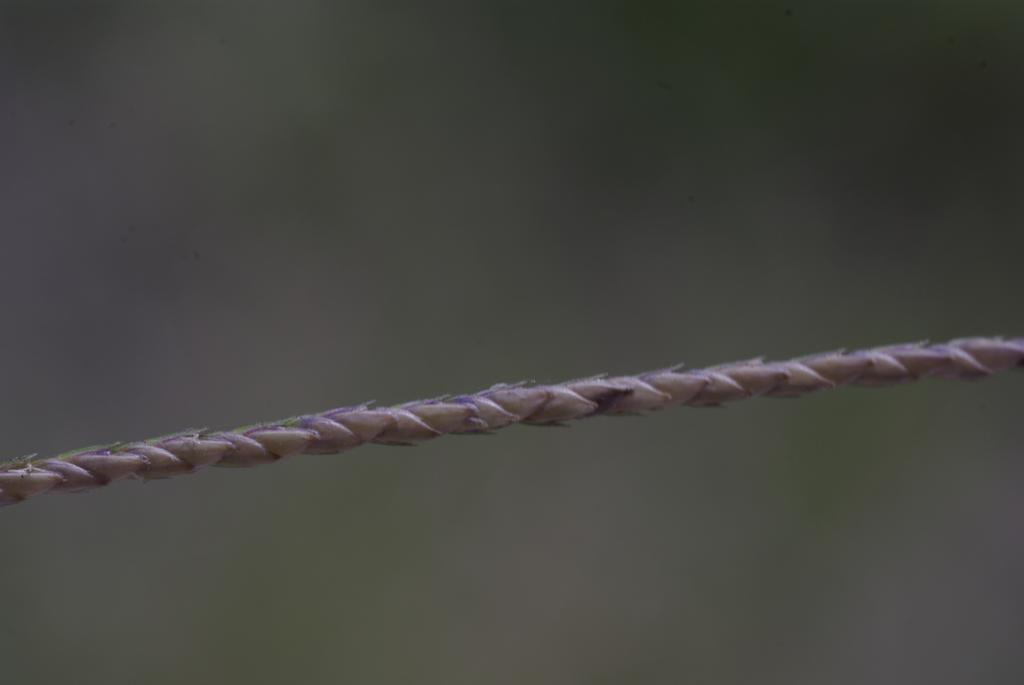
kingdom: Plantae
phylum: Tracheophyta
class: Liliopsida
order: Poales
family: Poaceae
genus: Cynodon
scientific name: Cynodon dactylon
